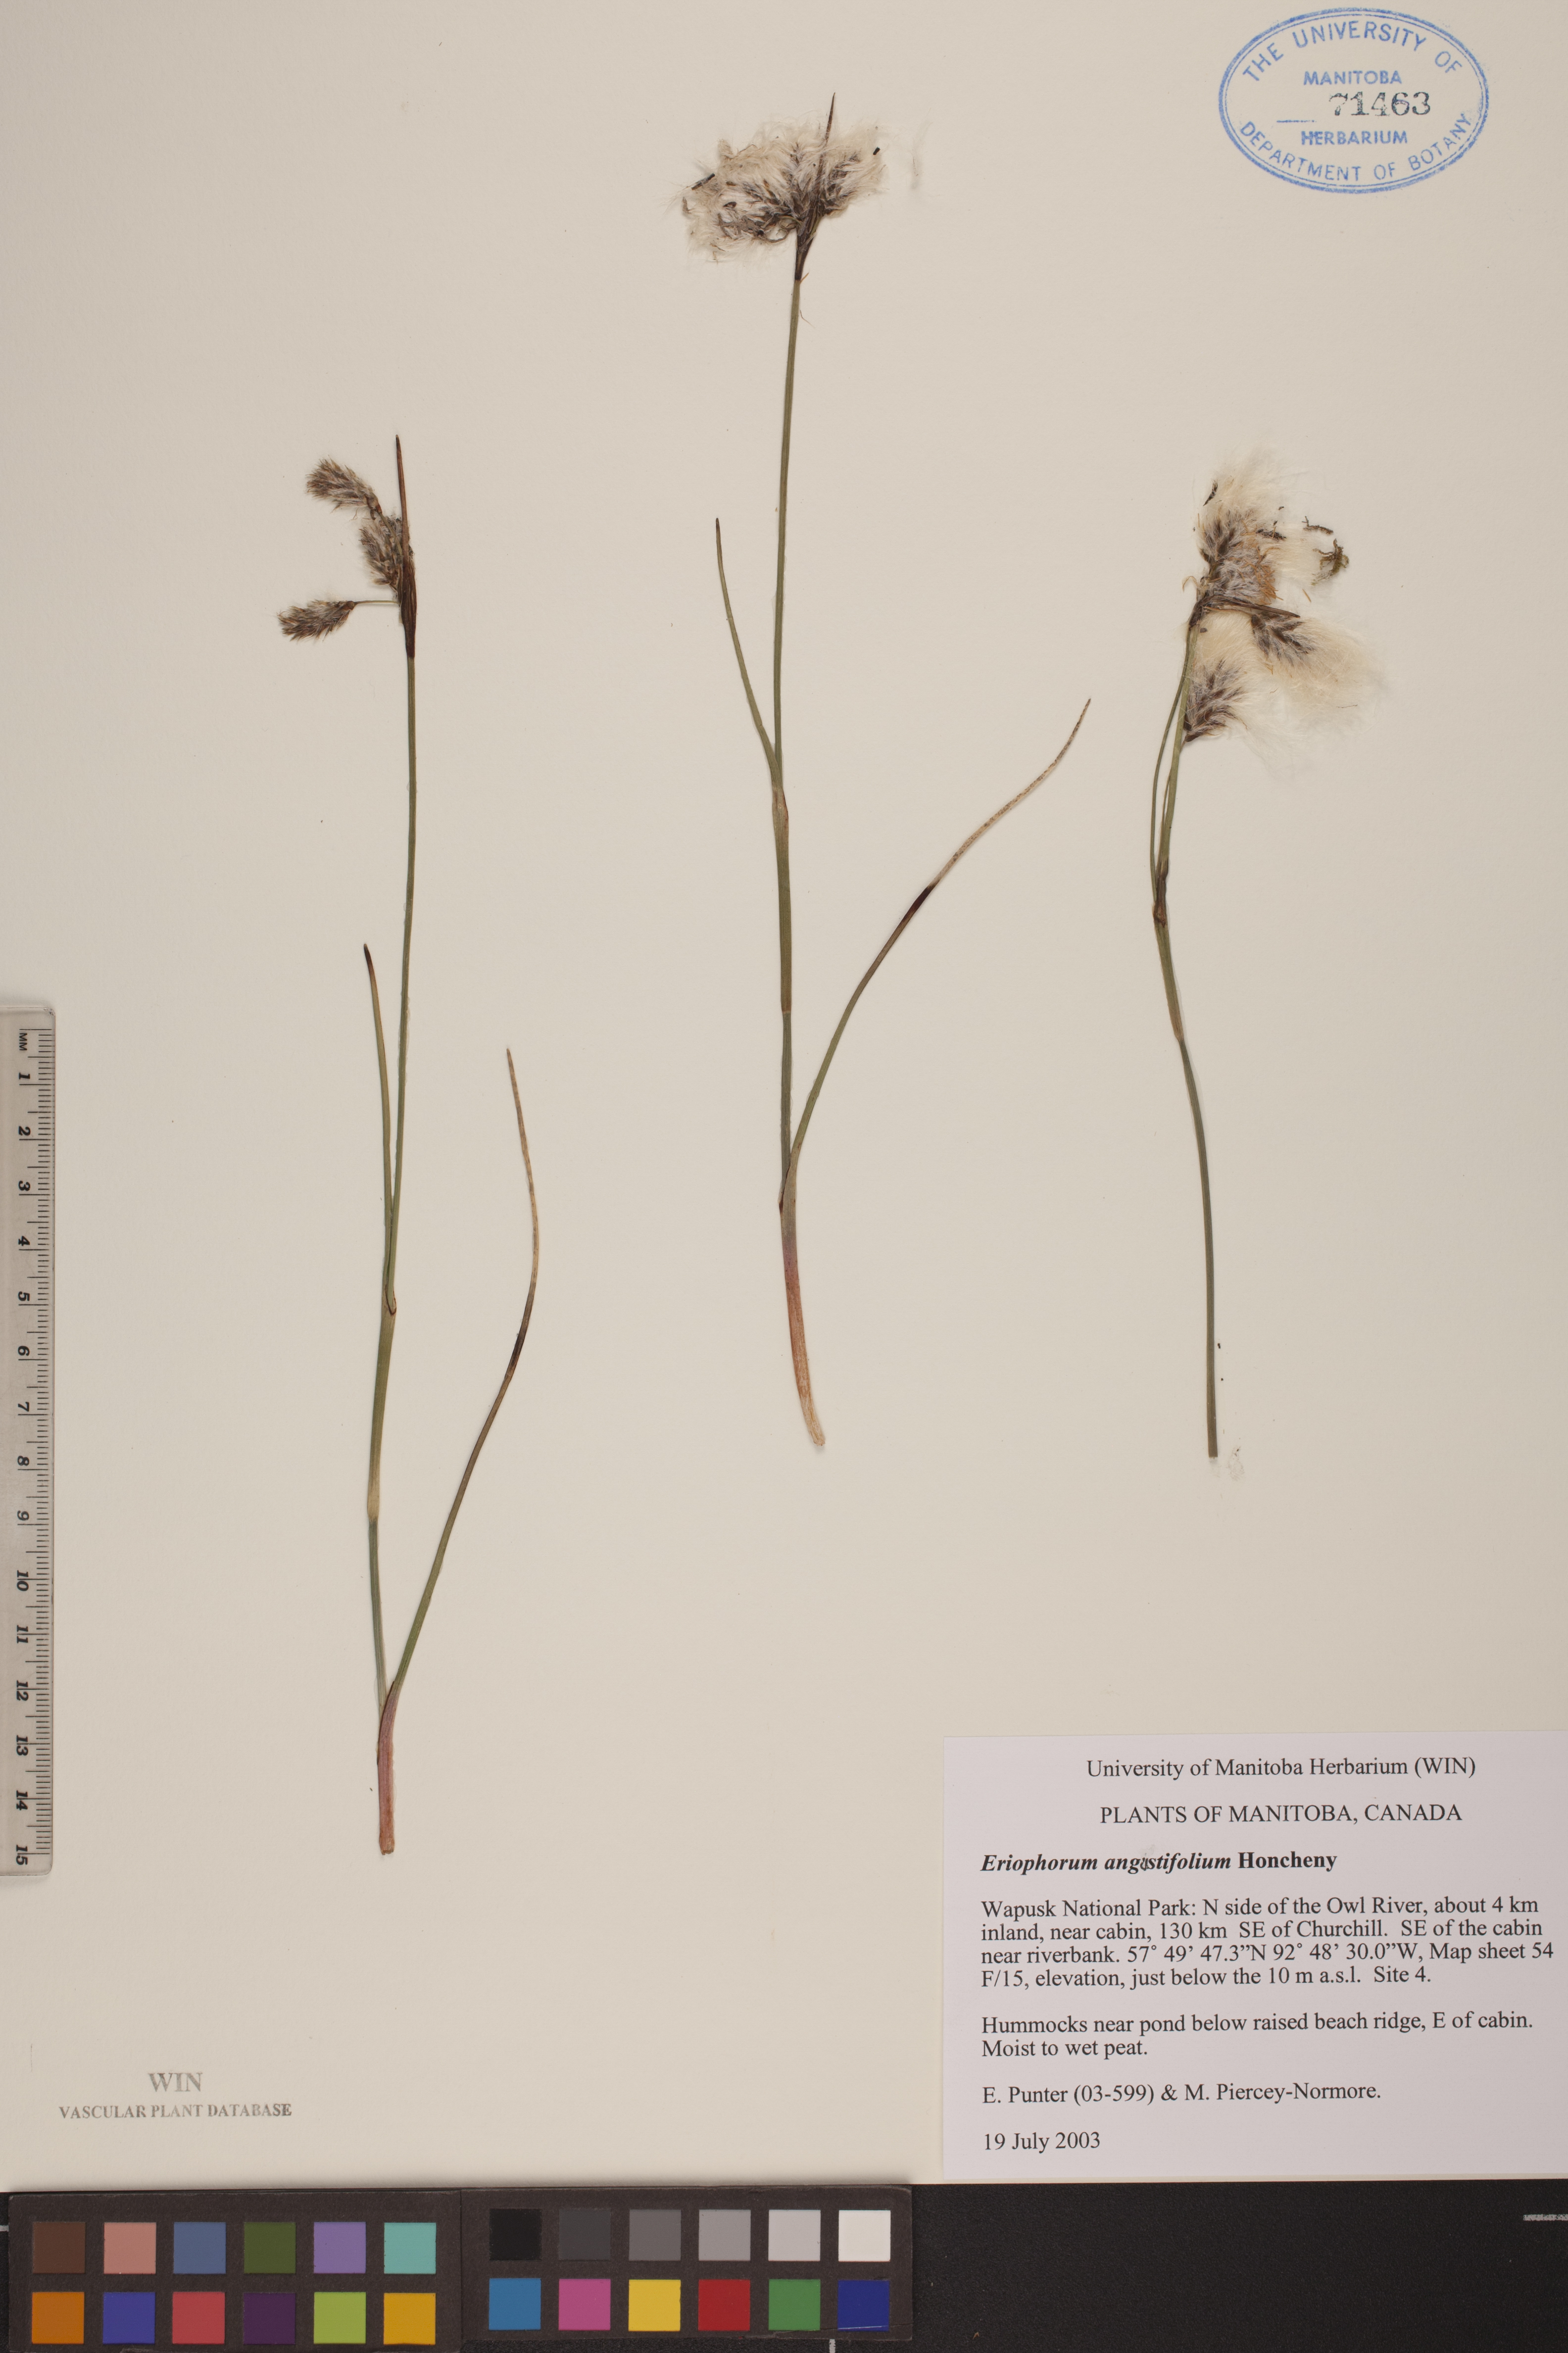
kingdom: Plantae
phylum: Tracheophyta
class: Liliopsida
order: Poales
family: Cyperaceae
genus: Eriophorum
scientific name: Eriophorum angustifolium
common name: Common cottongrass
